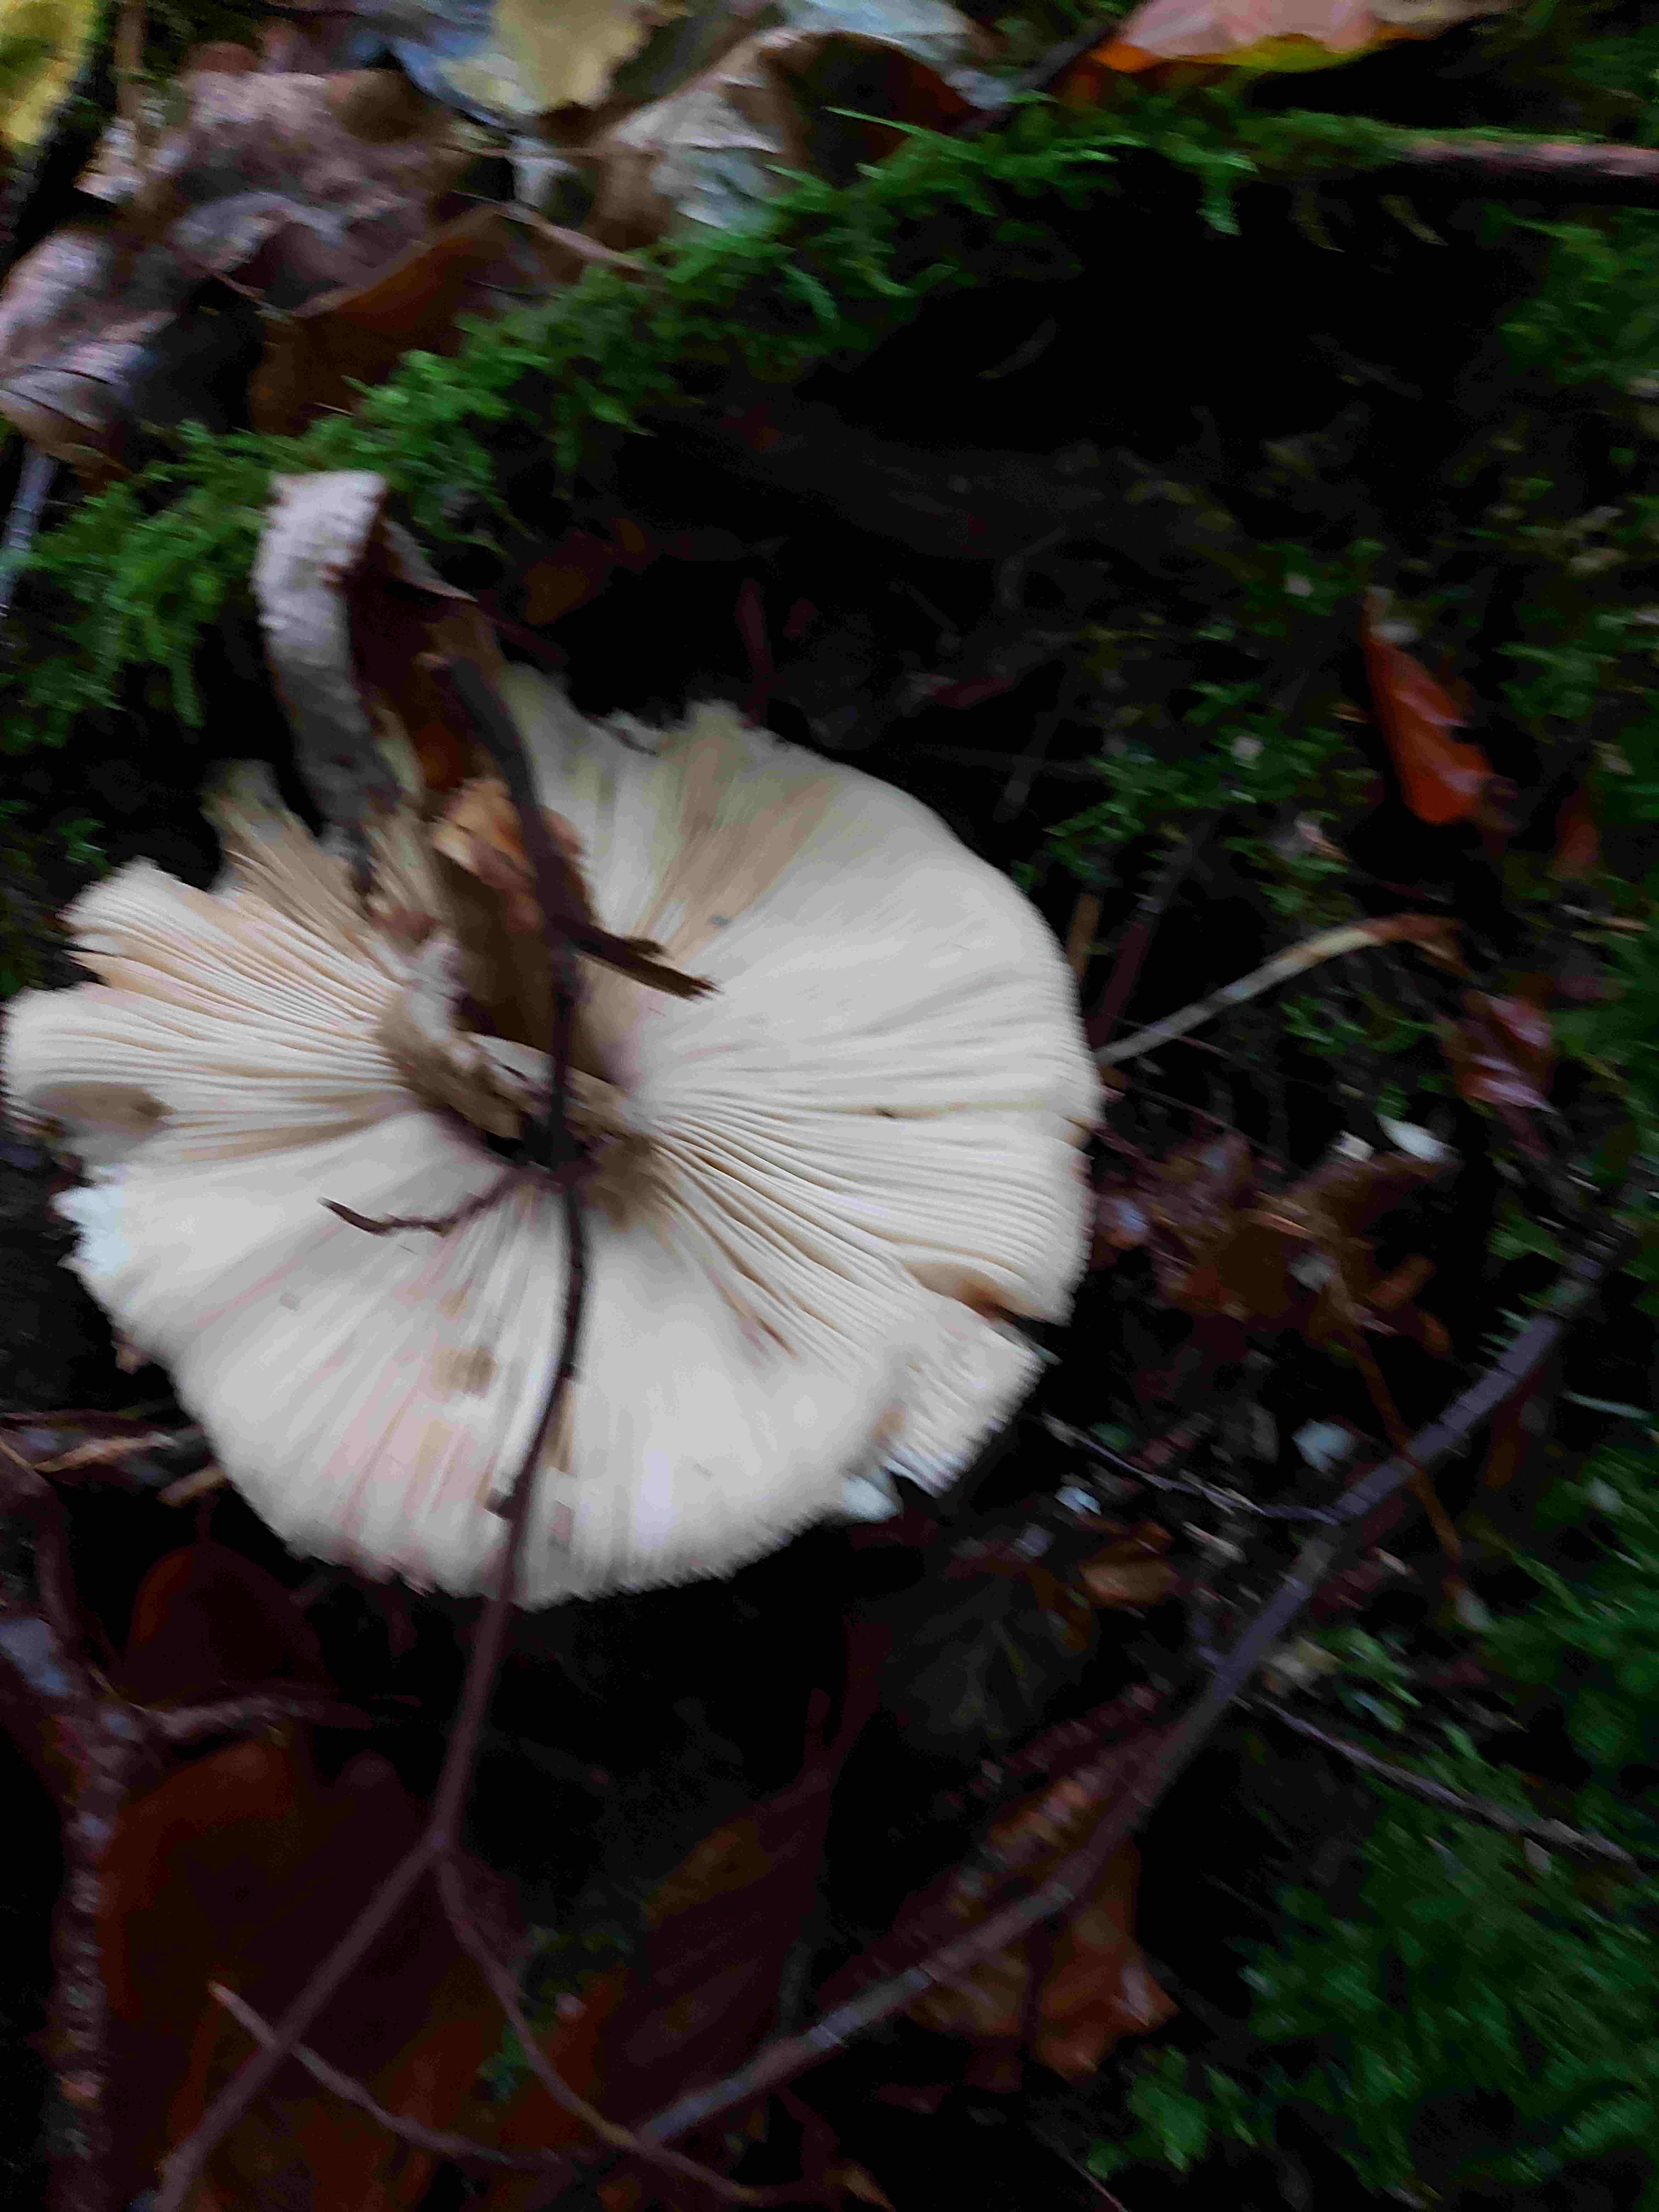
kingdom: Fungi
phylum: Basidiomycota
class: Agaricomycetes
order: Agaricales
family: Agaricaceae
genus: Chlorophyllum
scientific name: Chlorophyllum
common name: rabarberhat
